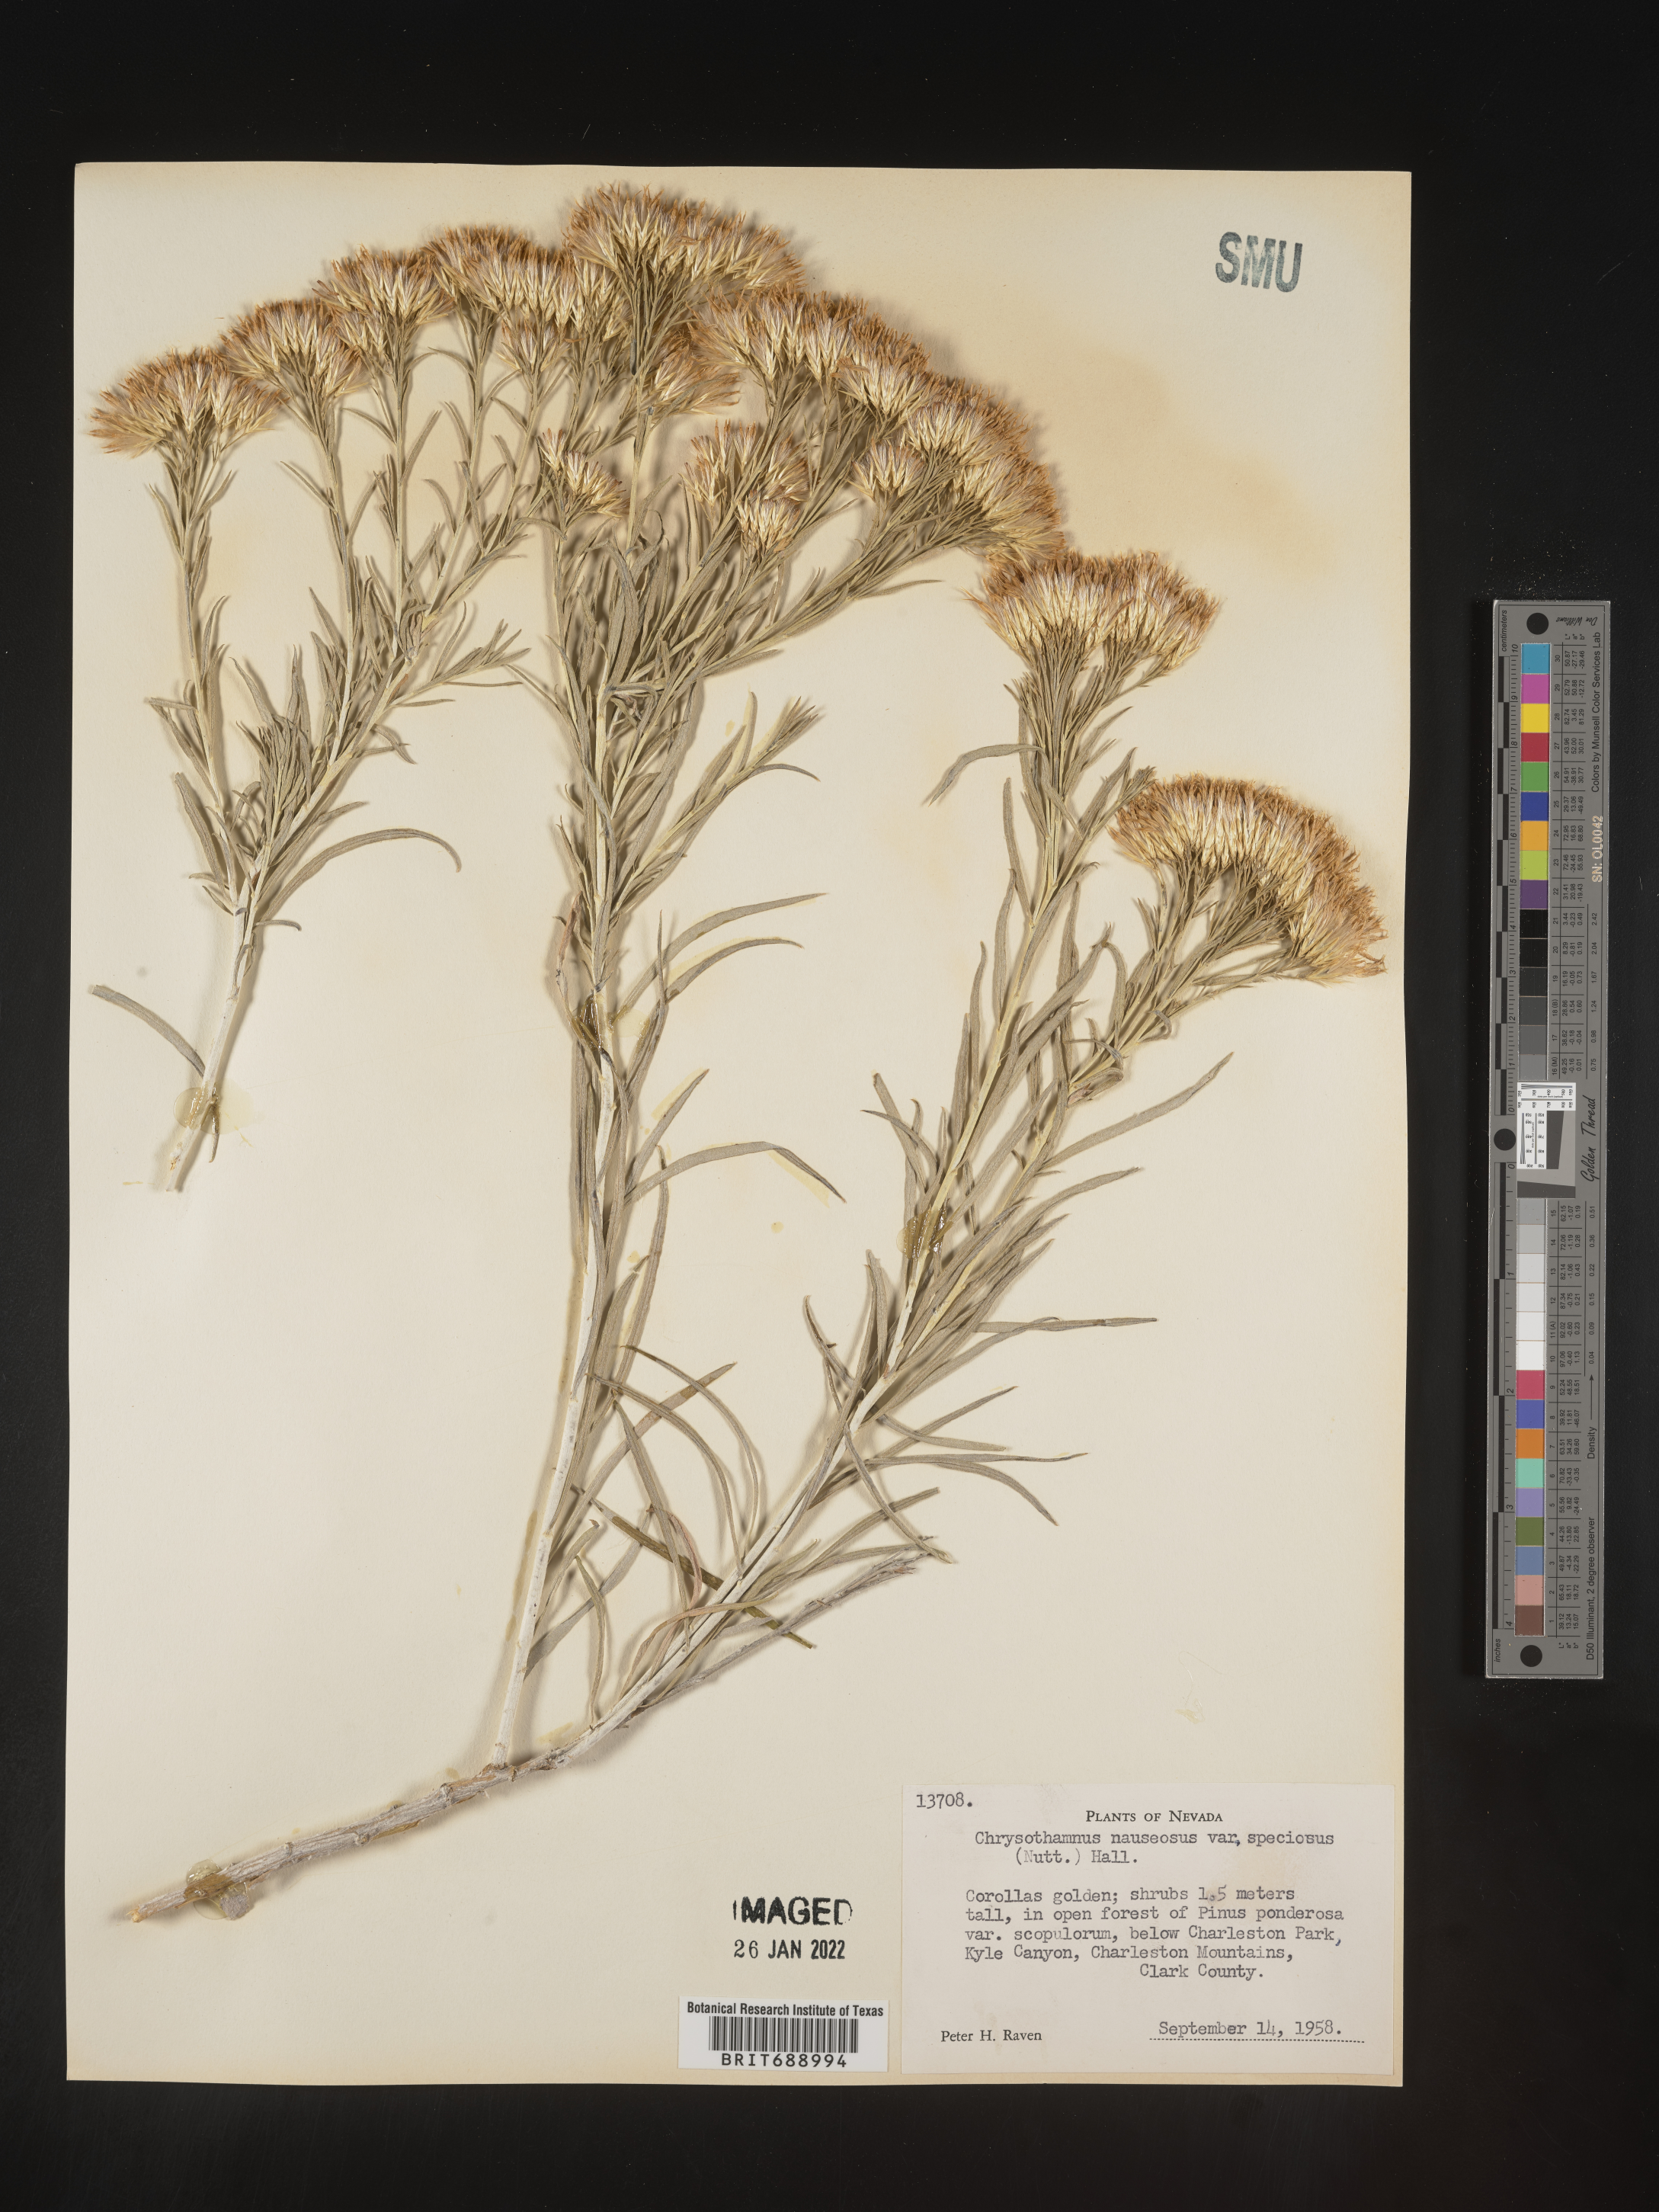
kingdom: Plantae
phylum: Tracheophyta
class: Magnoliopsida
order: Asterales
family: Asteraceae
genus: Ericameria
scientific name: Ericameria nauseosa
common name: Rubber rabbitbrush
